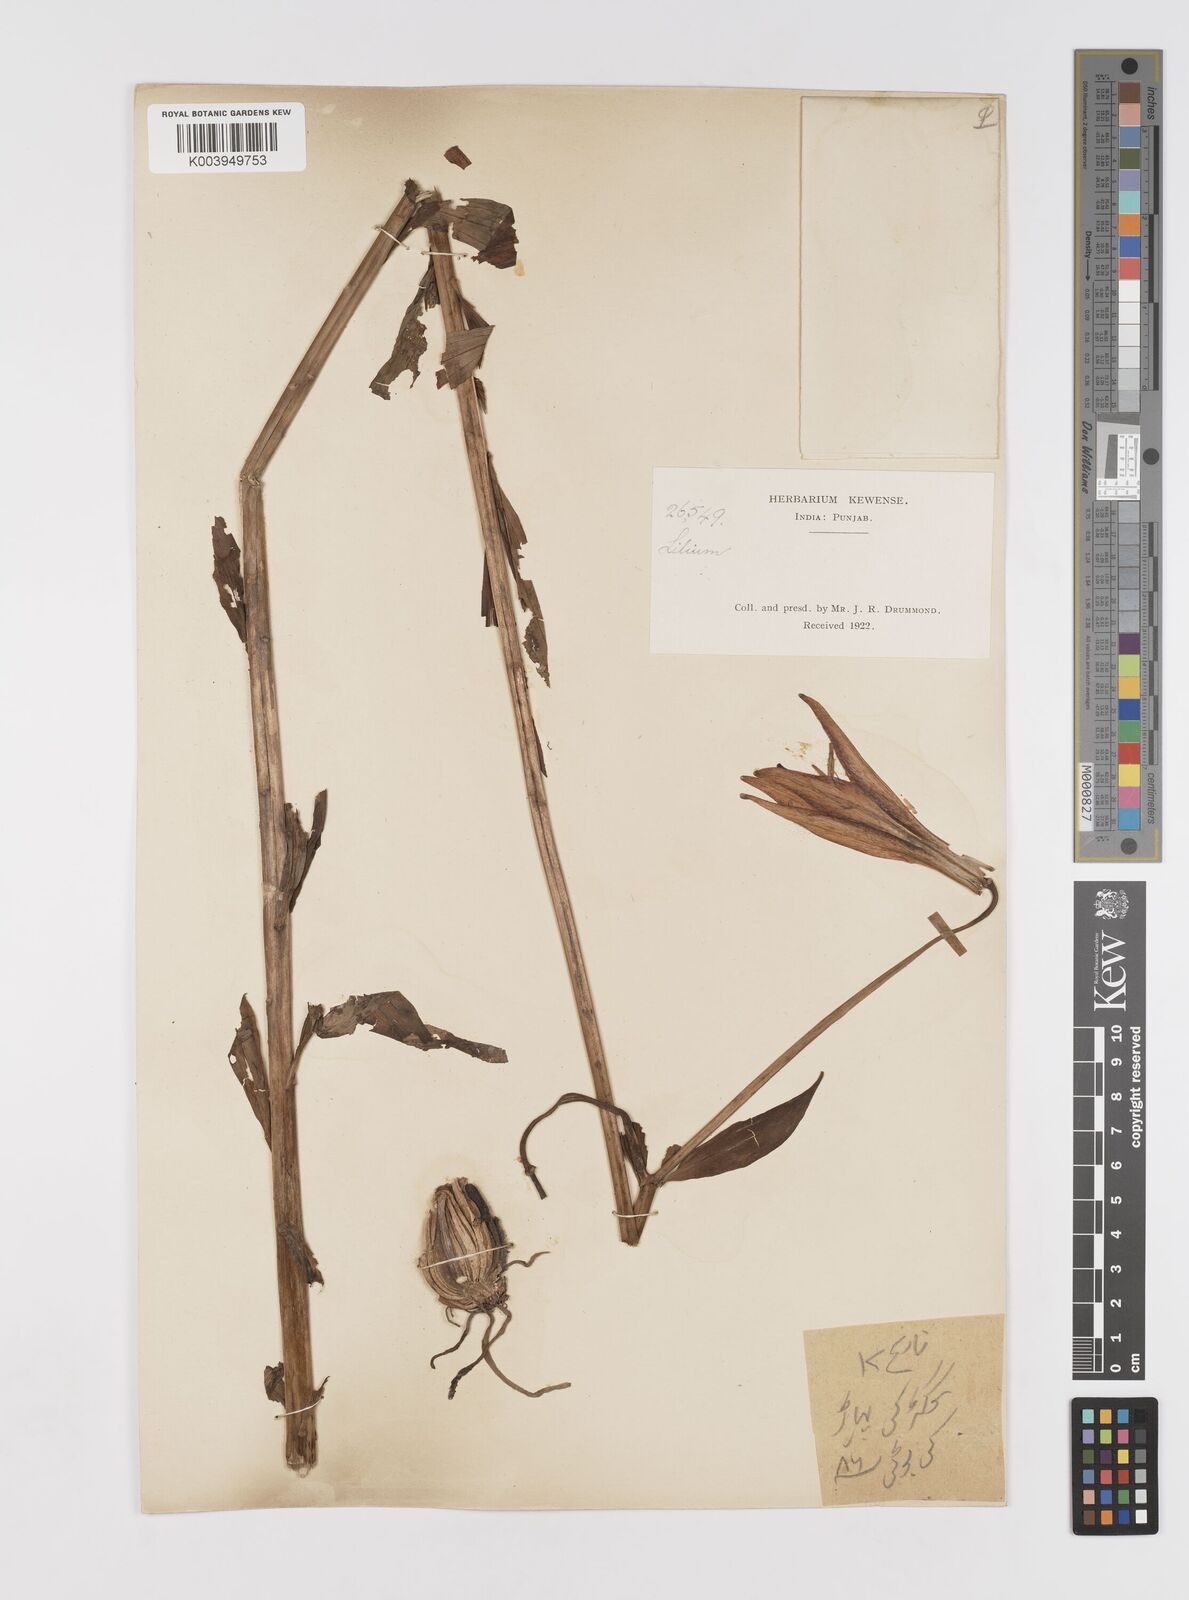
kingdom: Plantae
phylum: Tracheophyta
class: Liliopsida
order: Liliales
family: Liliaceae
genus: Lilium
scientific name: Lilium polyphyllum
